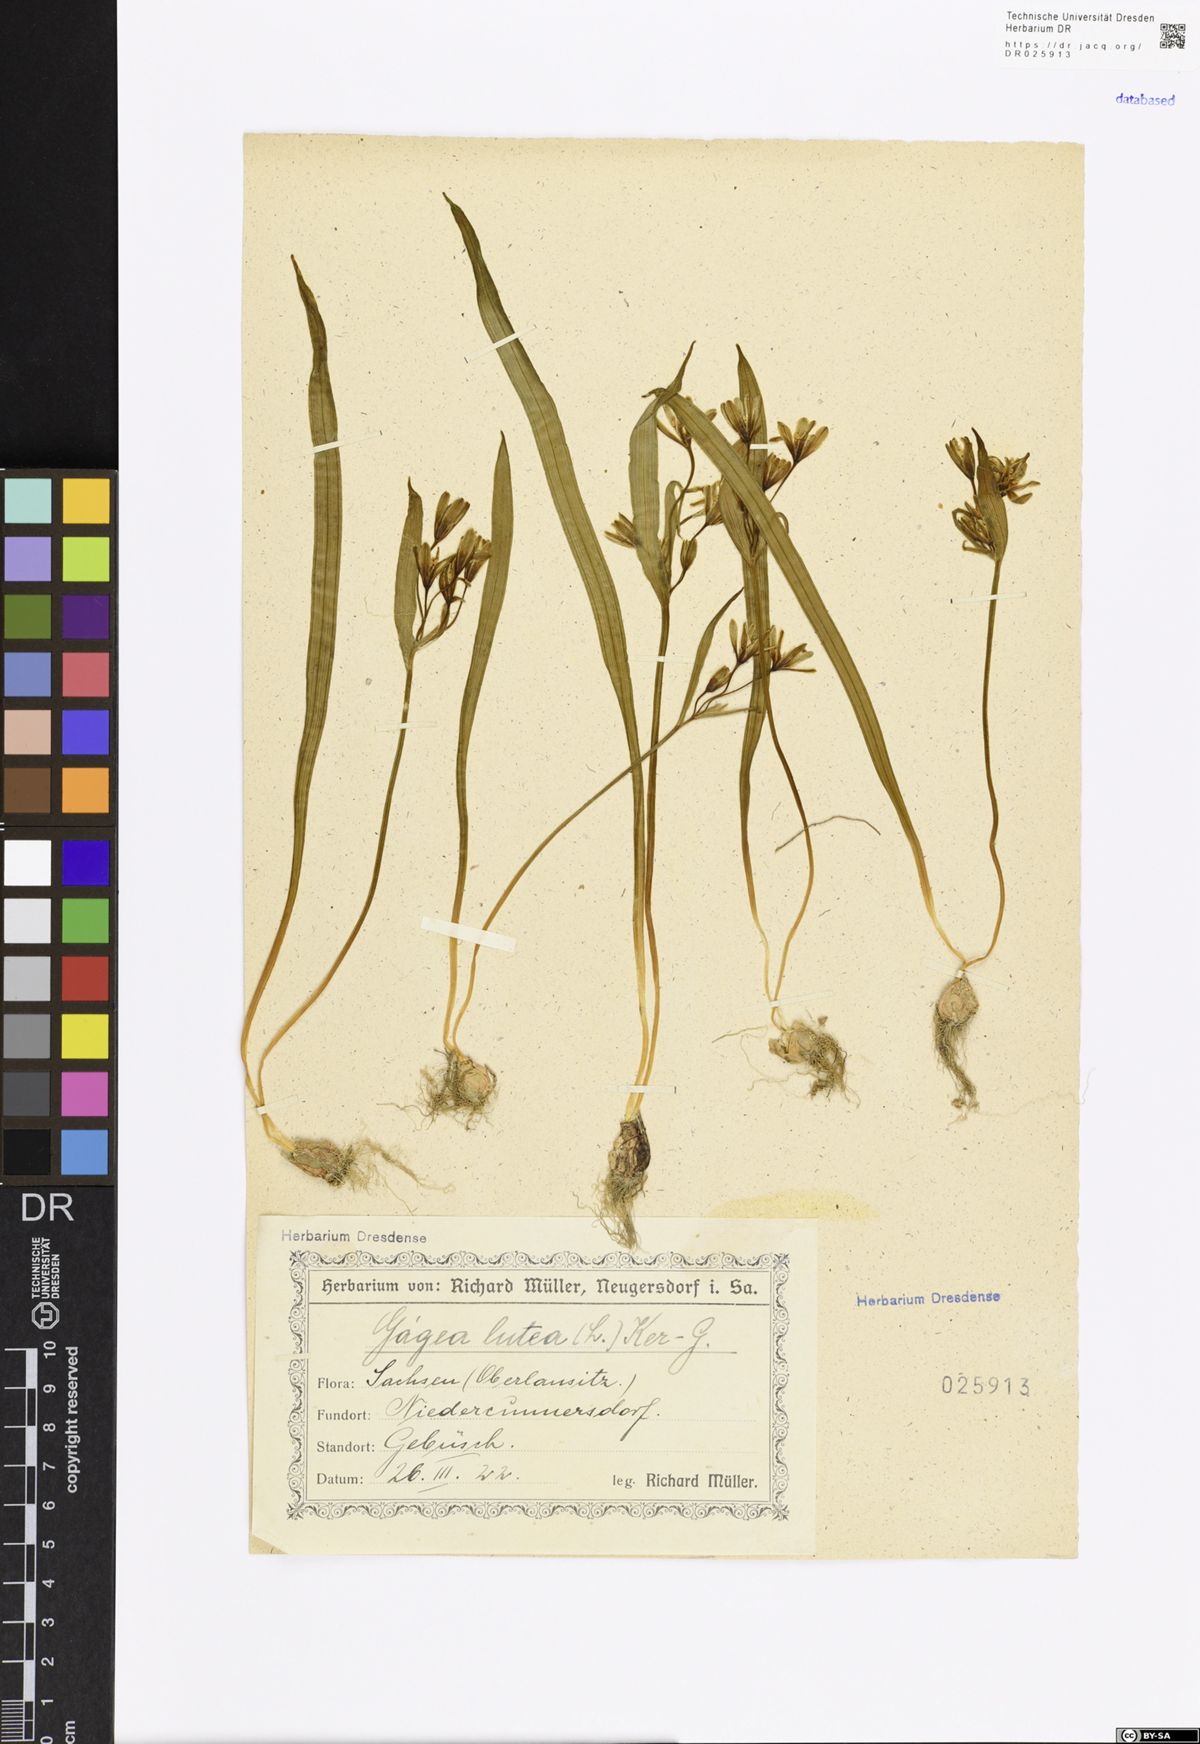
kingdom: Plantae
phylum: Tracheophyta
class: Liliopsida
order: Liliales
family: Liliaceae
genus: Gagea
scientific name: Gagea lutea
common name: Yellow star-of-bethlehem
